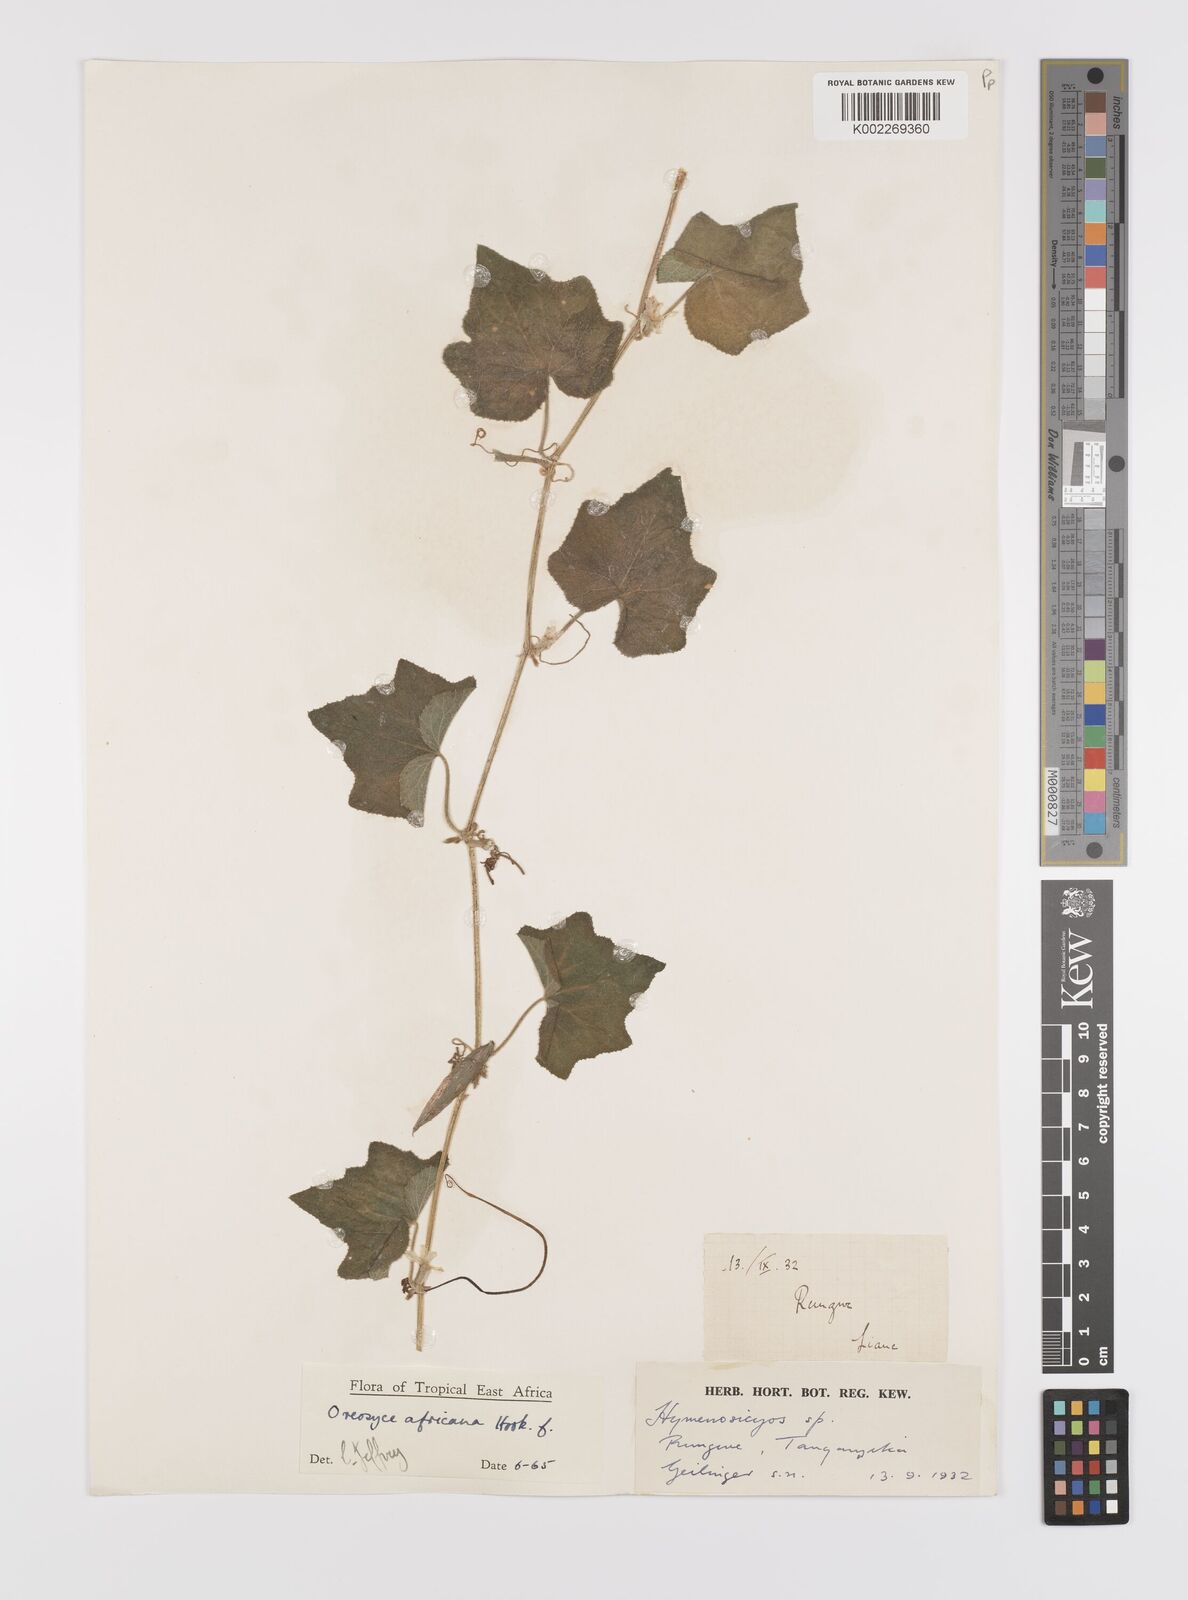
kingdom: Plantae
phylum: Tracheophyta
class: Magnoliopsida
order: Cucurbitales
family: Cucurbitaceae
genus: Cucumis
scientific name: Cucumis oreosyce
